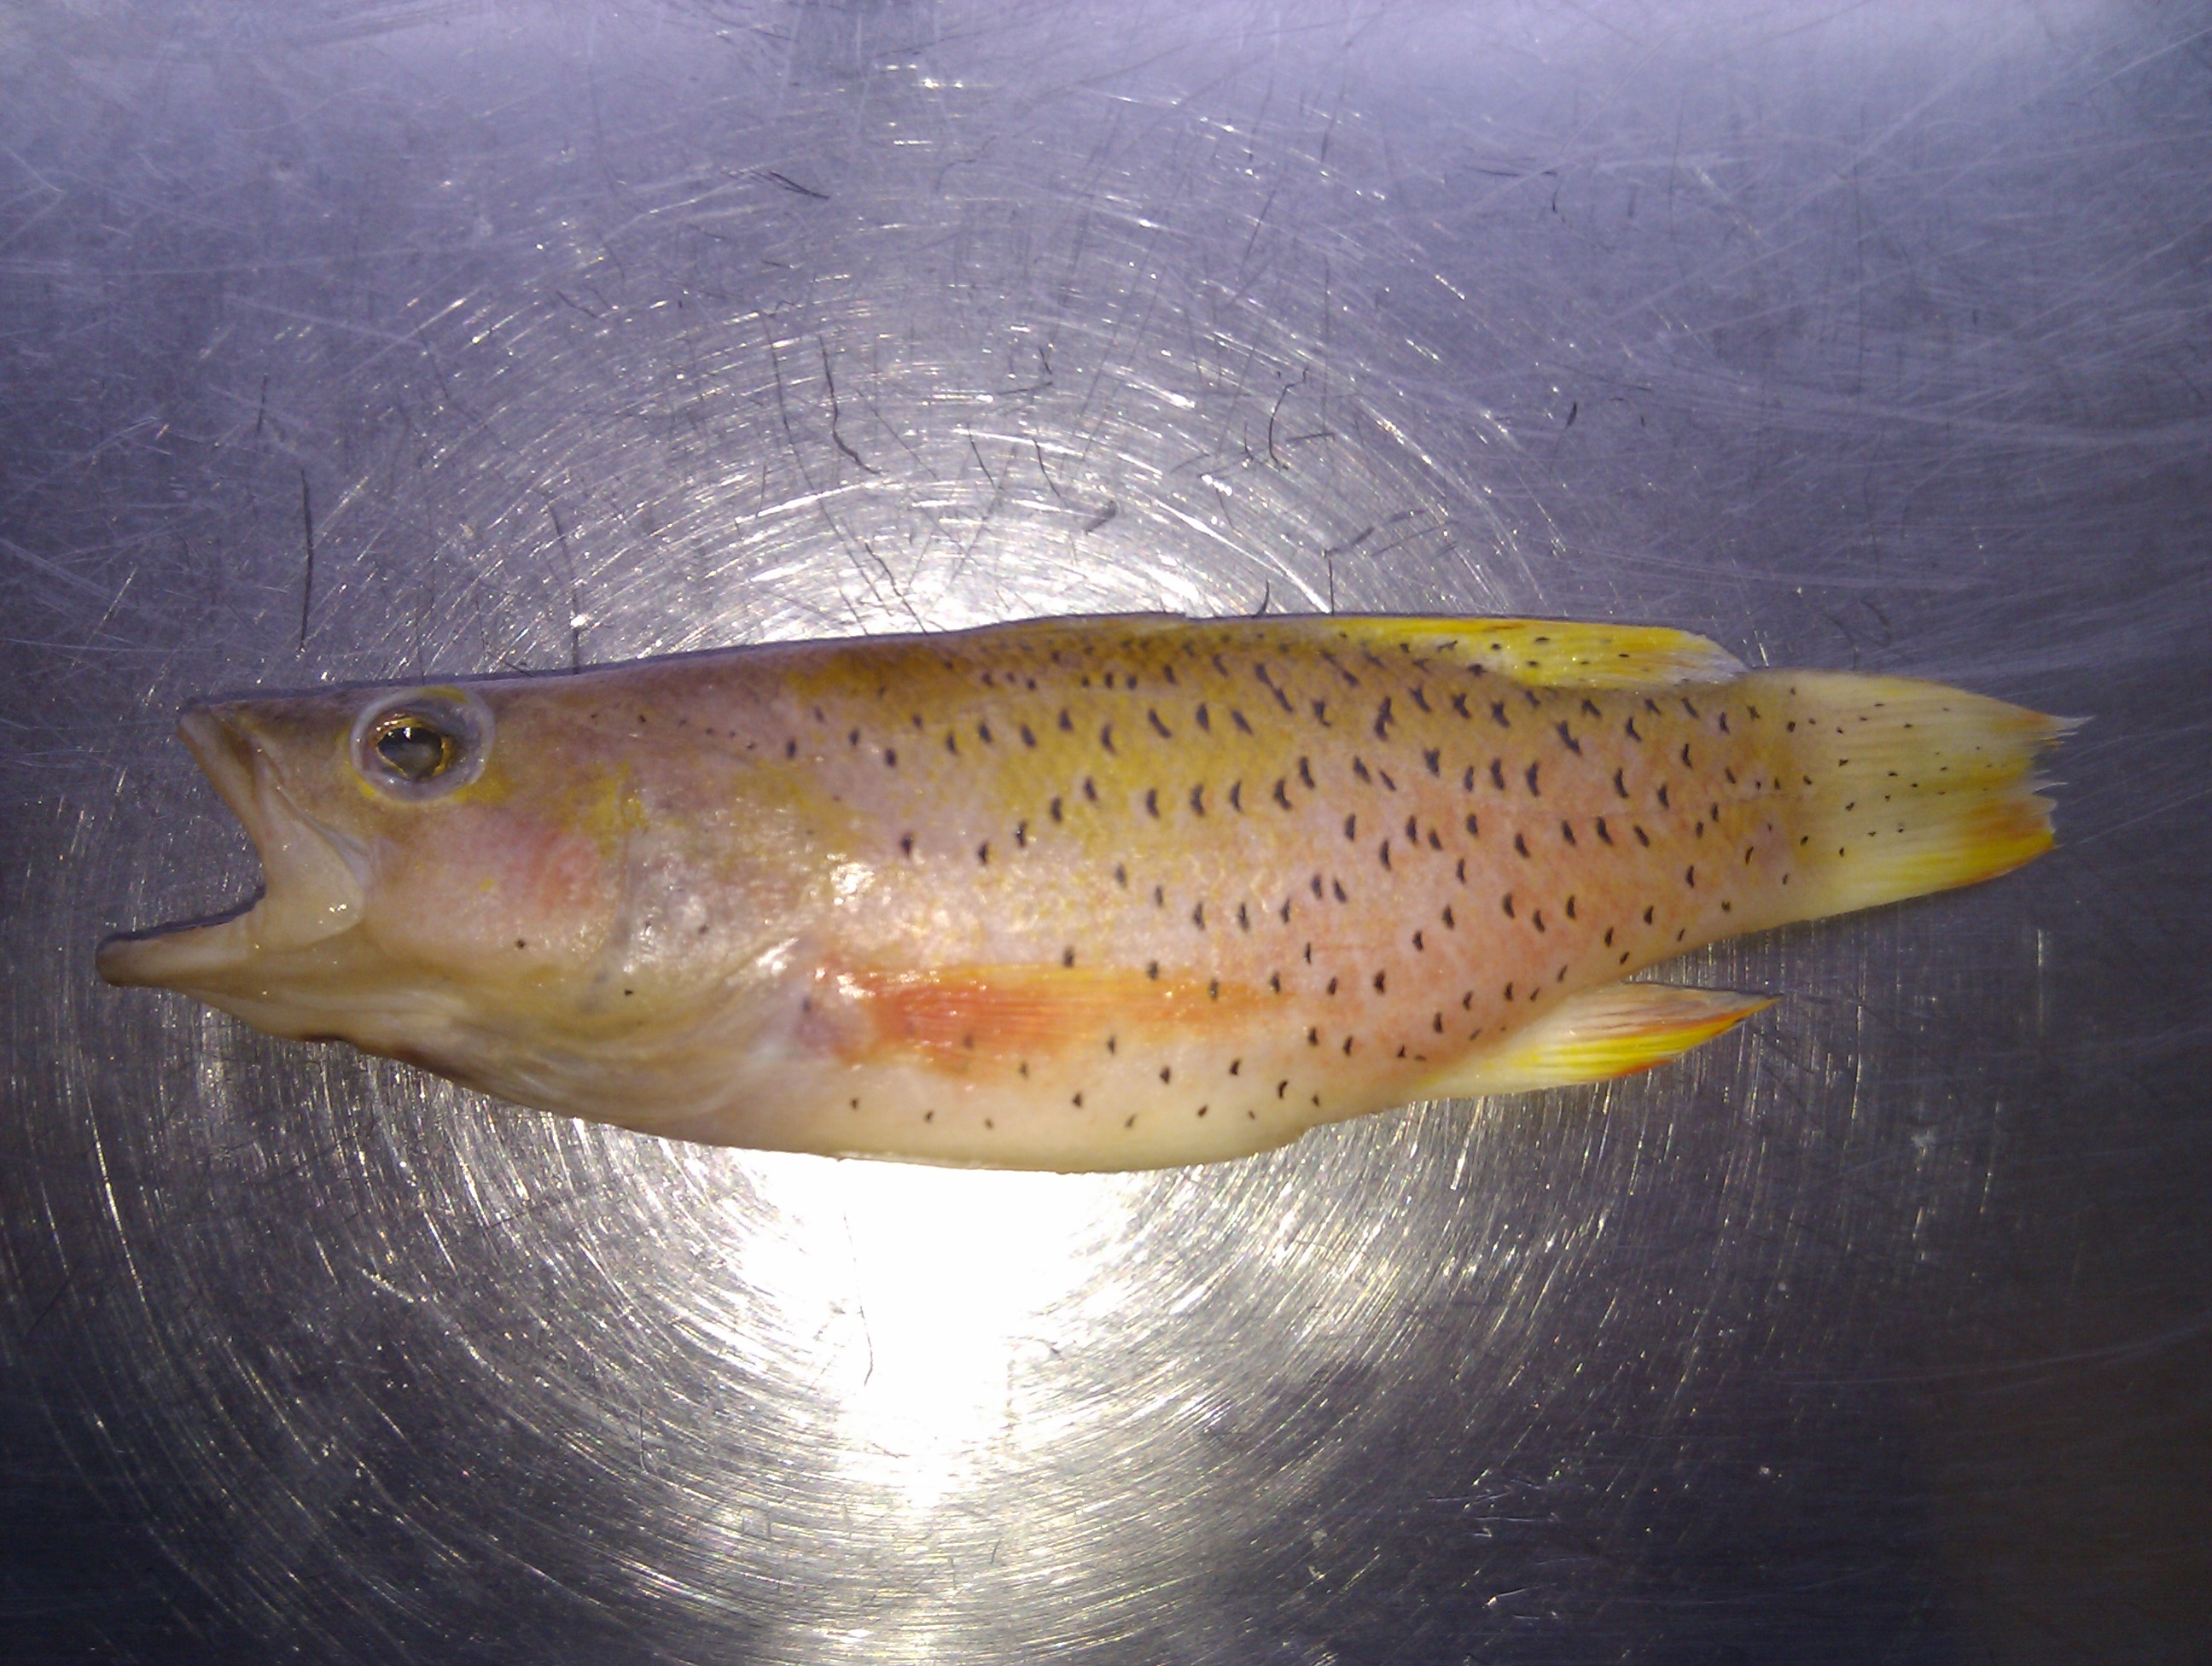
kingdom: Animalia
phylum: Chordata
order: Perciformes
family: Serranidae
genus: Liopropoma
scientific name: Liopropoma
